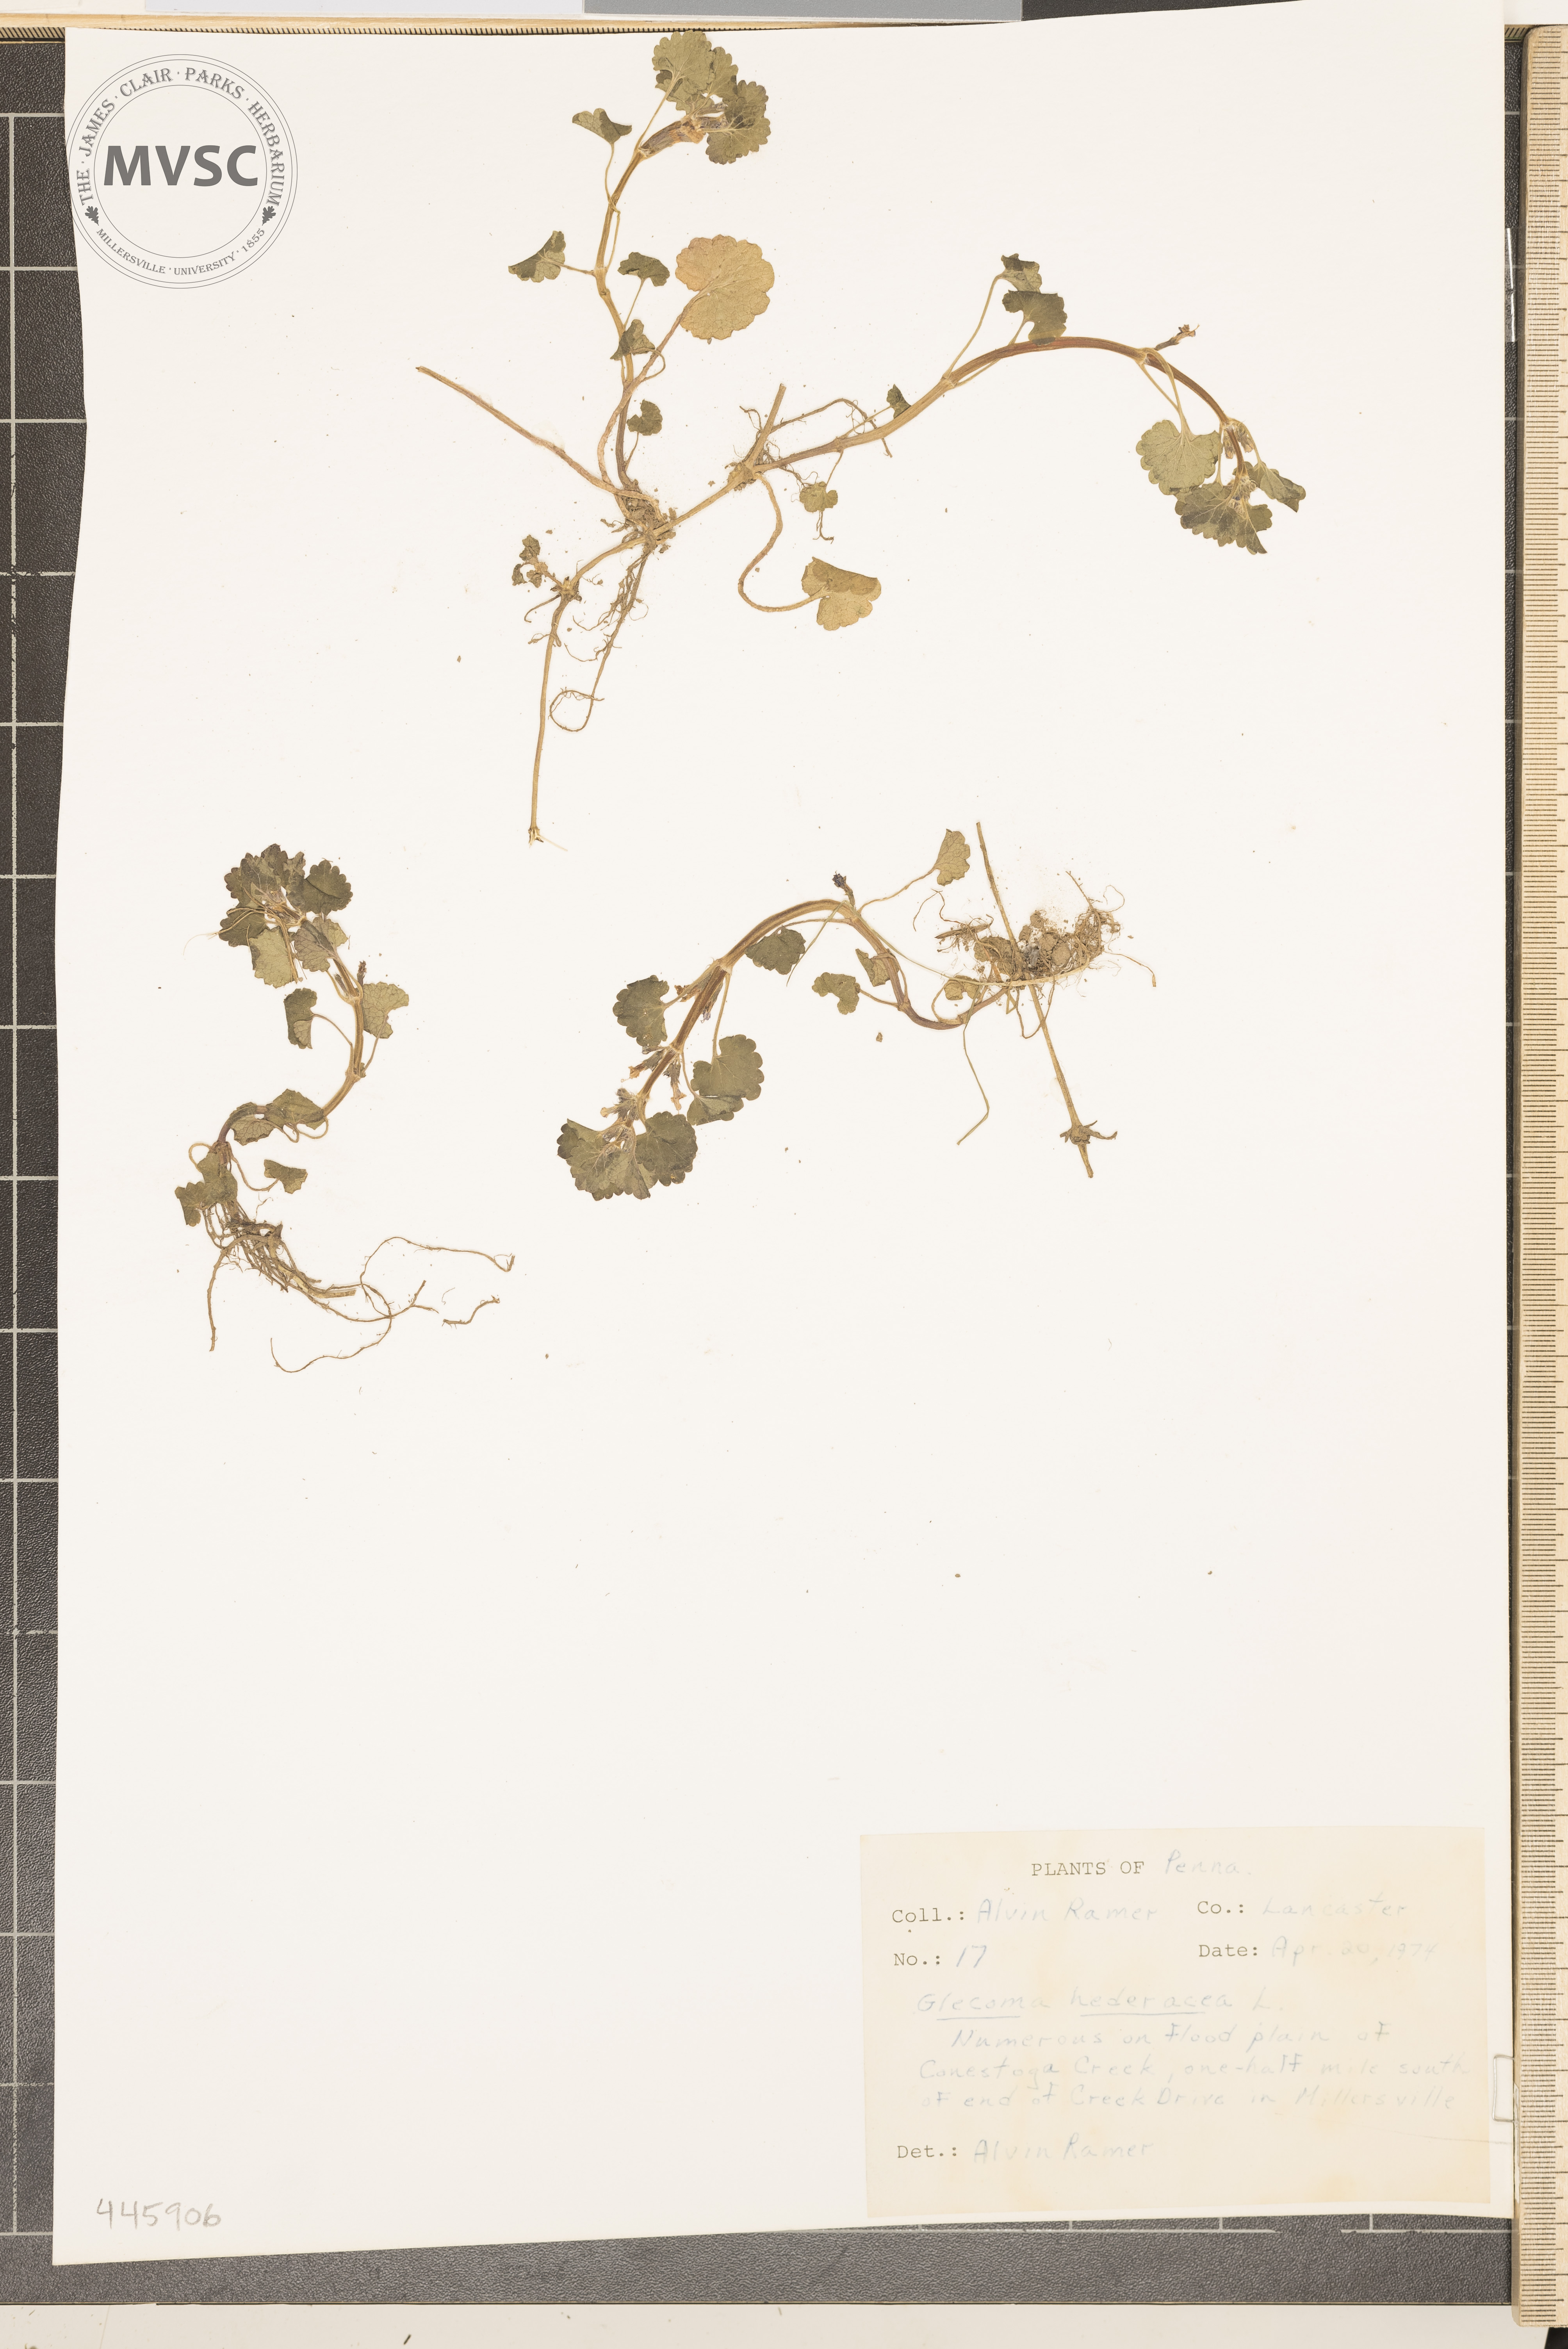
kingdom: Plantae
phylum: Tracheophyta
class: Magnoliopsida
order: Lamiales
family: Lamiaceae
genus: Glechoma
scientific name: Glechoma hederacea
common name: Ground ivy
